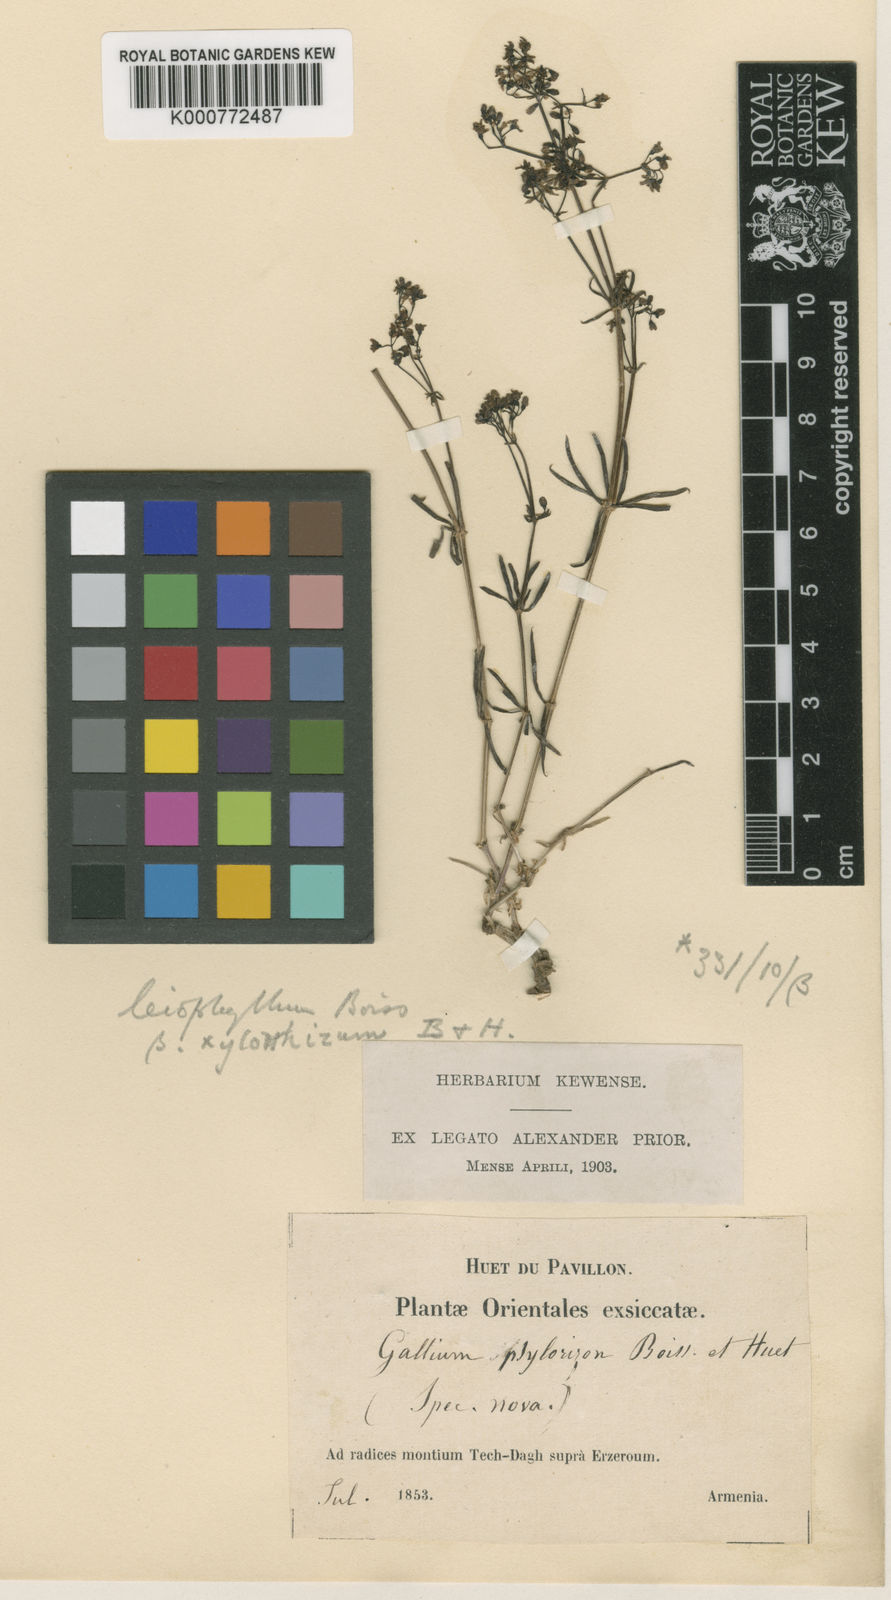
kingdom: Plantae
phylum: Tracheophyta
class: Magnoliopsida
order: Gentianales
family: Rubiaceae
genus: Galium
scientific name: Galium xylorrhizum
